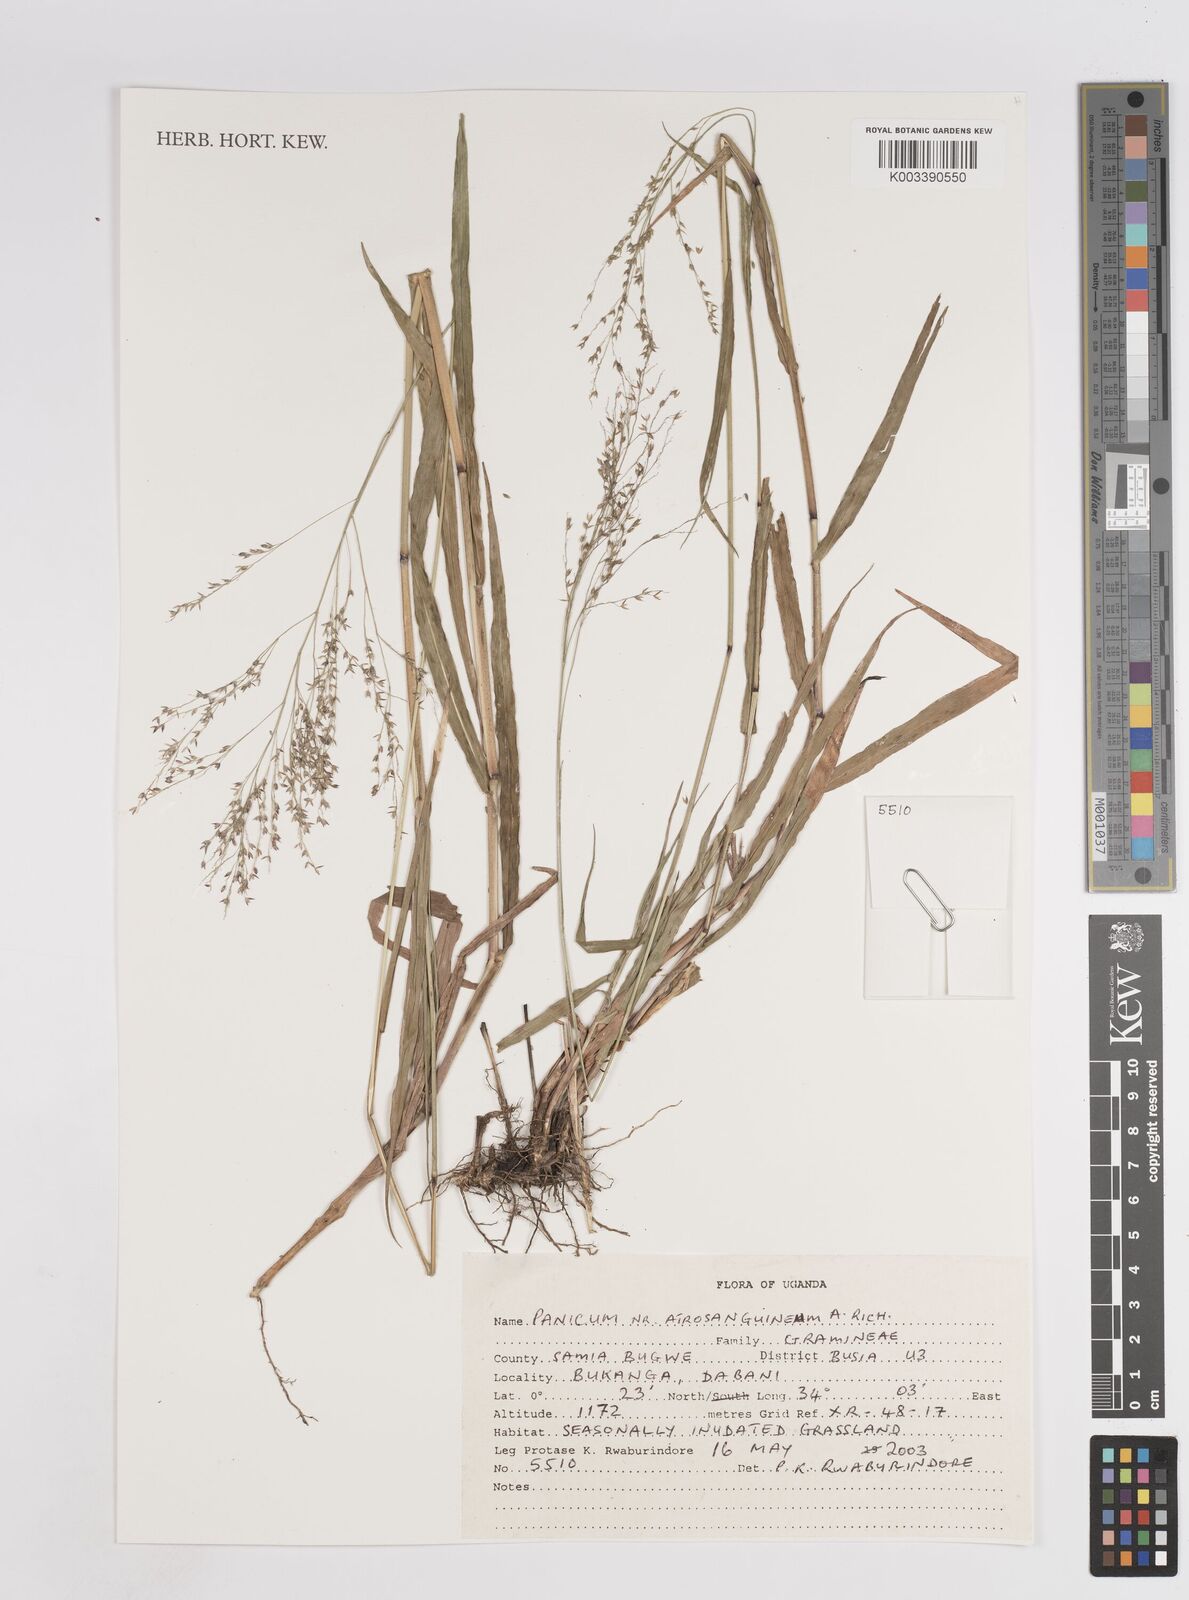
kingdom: Plantae
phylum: Tracheophyta
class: Liliopsida
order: Poales
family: Poaceae
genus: Panicum
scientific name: Panicum atrosanguineum
